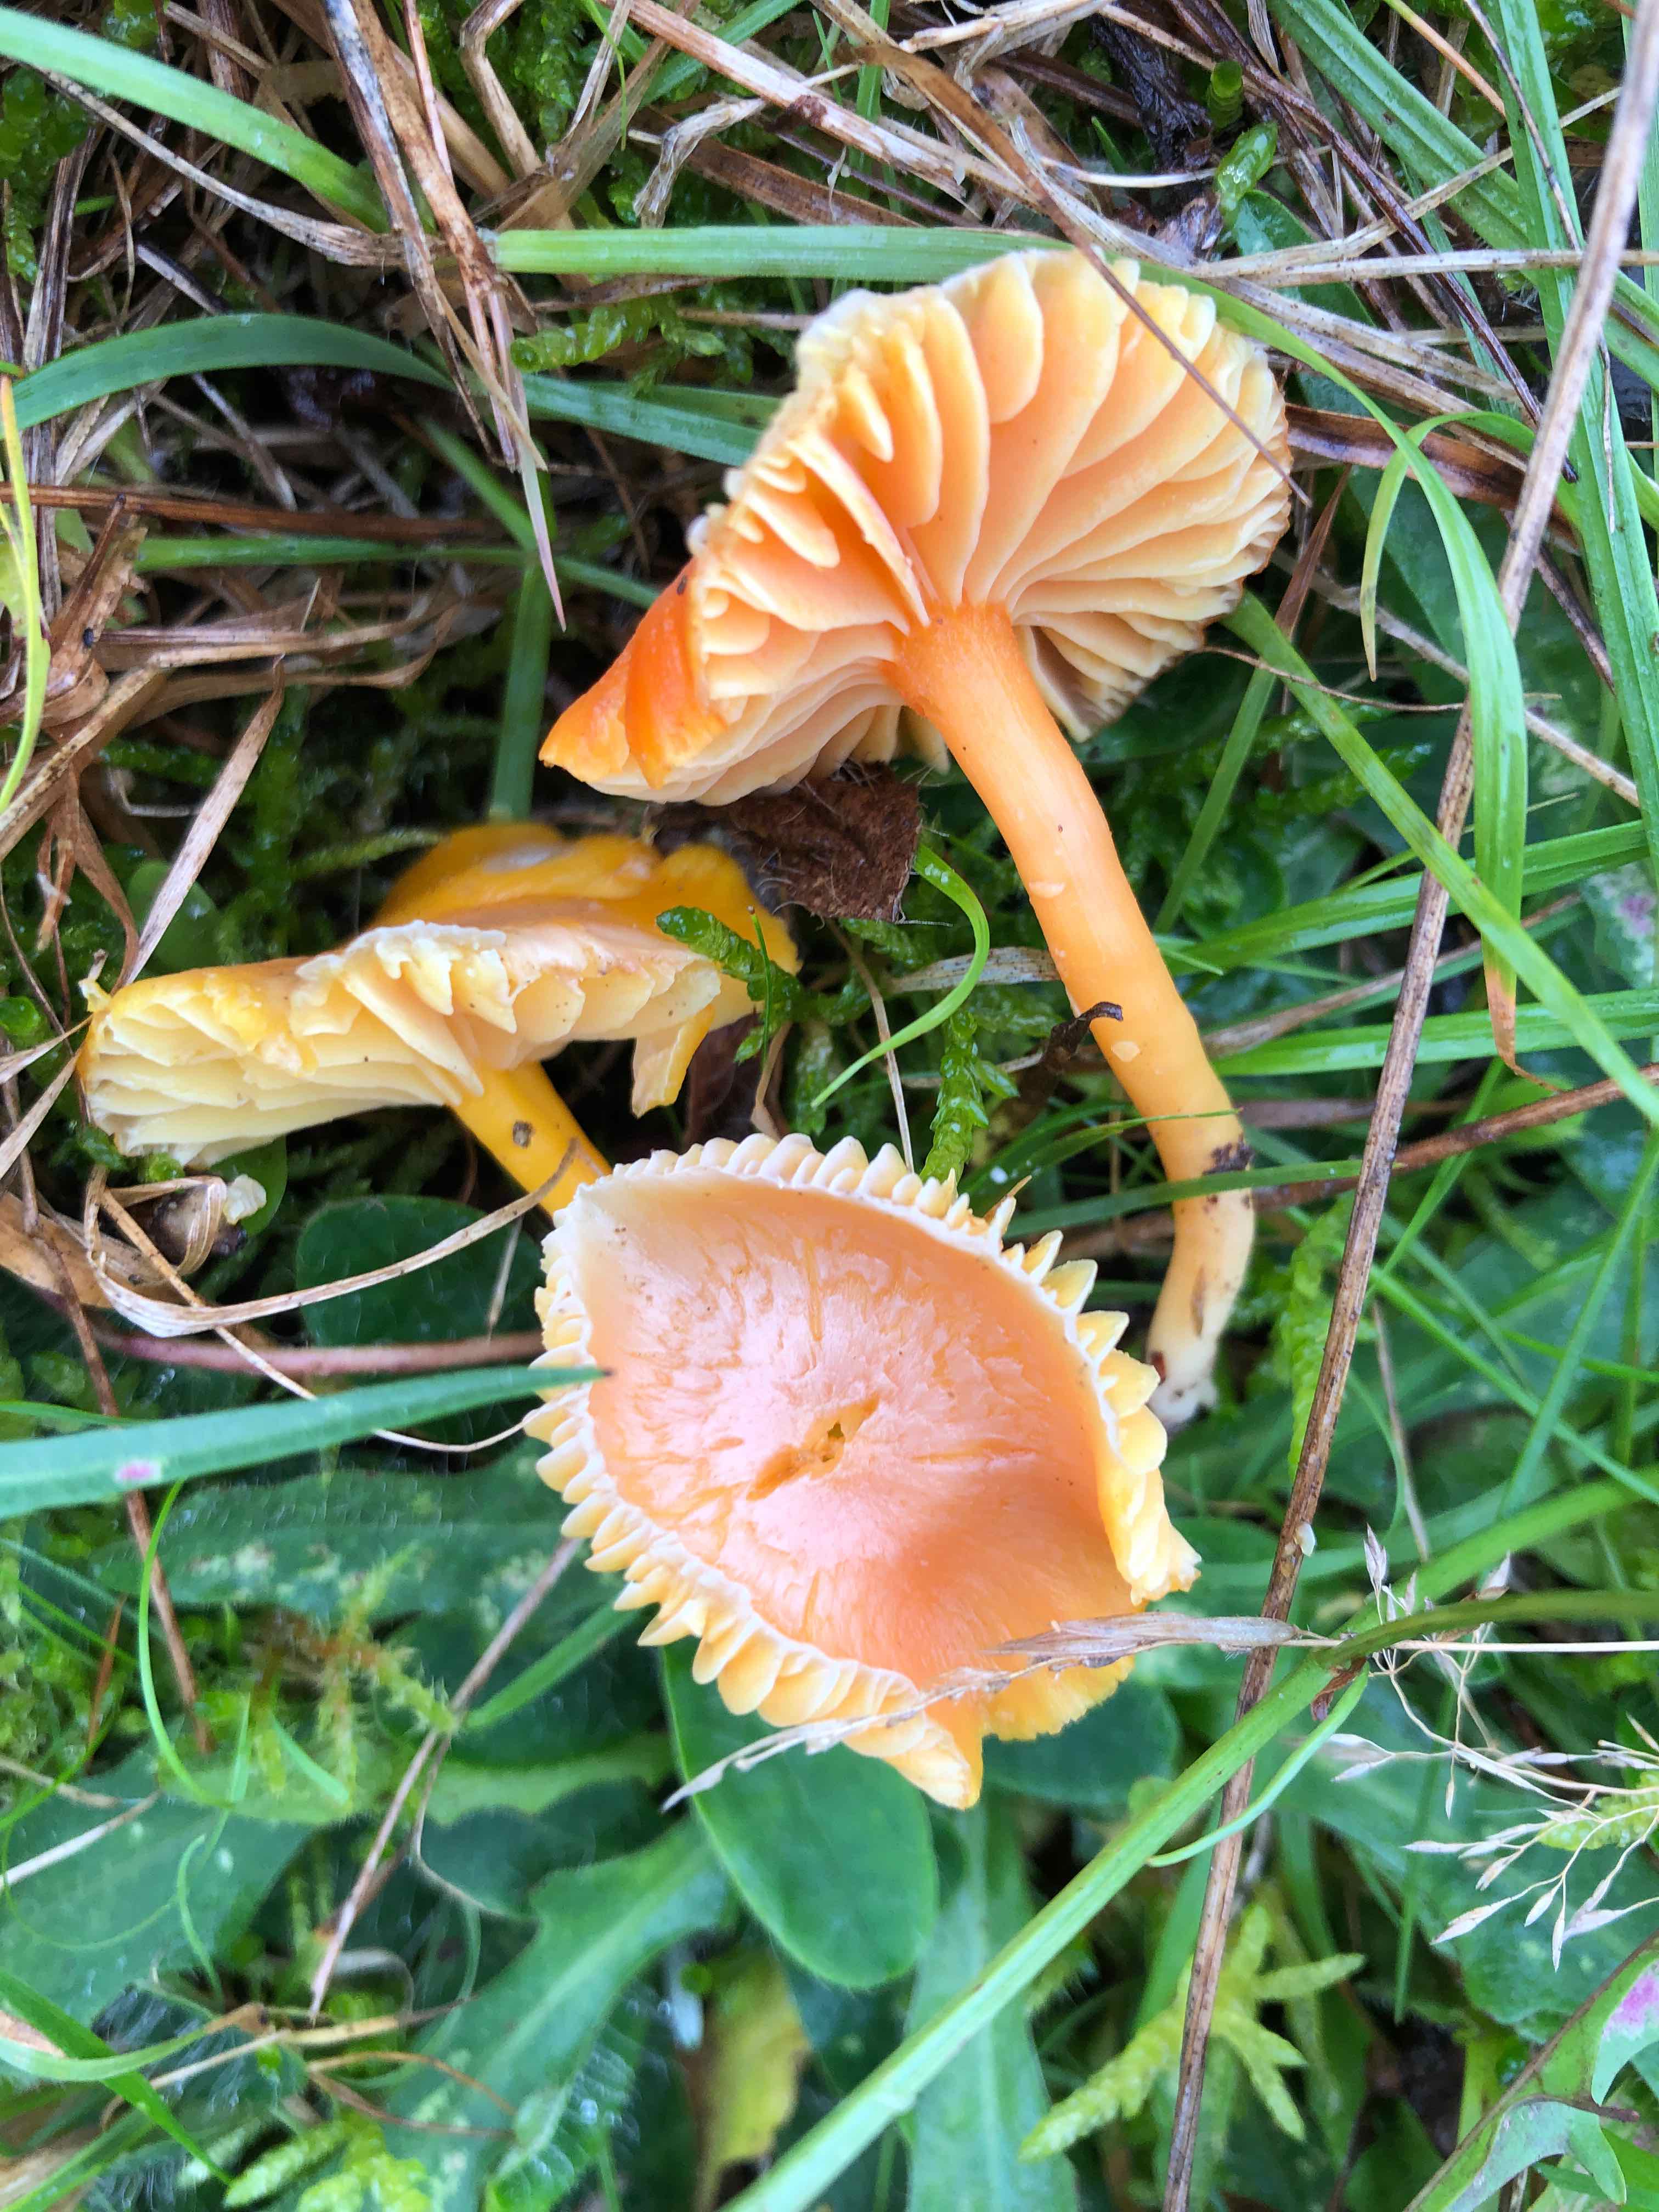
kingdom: Fungi
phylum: Basidiomycota
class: Agaricomycetes
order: Agaricales
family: Hygrophoraceae
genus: Hygrocybe
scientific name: Hygrocybe reidii
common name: honning-vokshat
